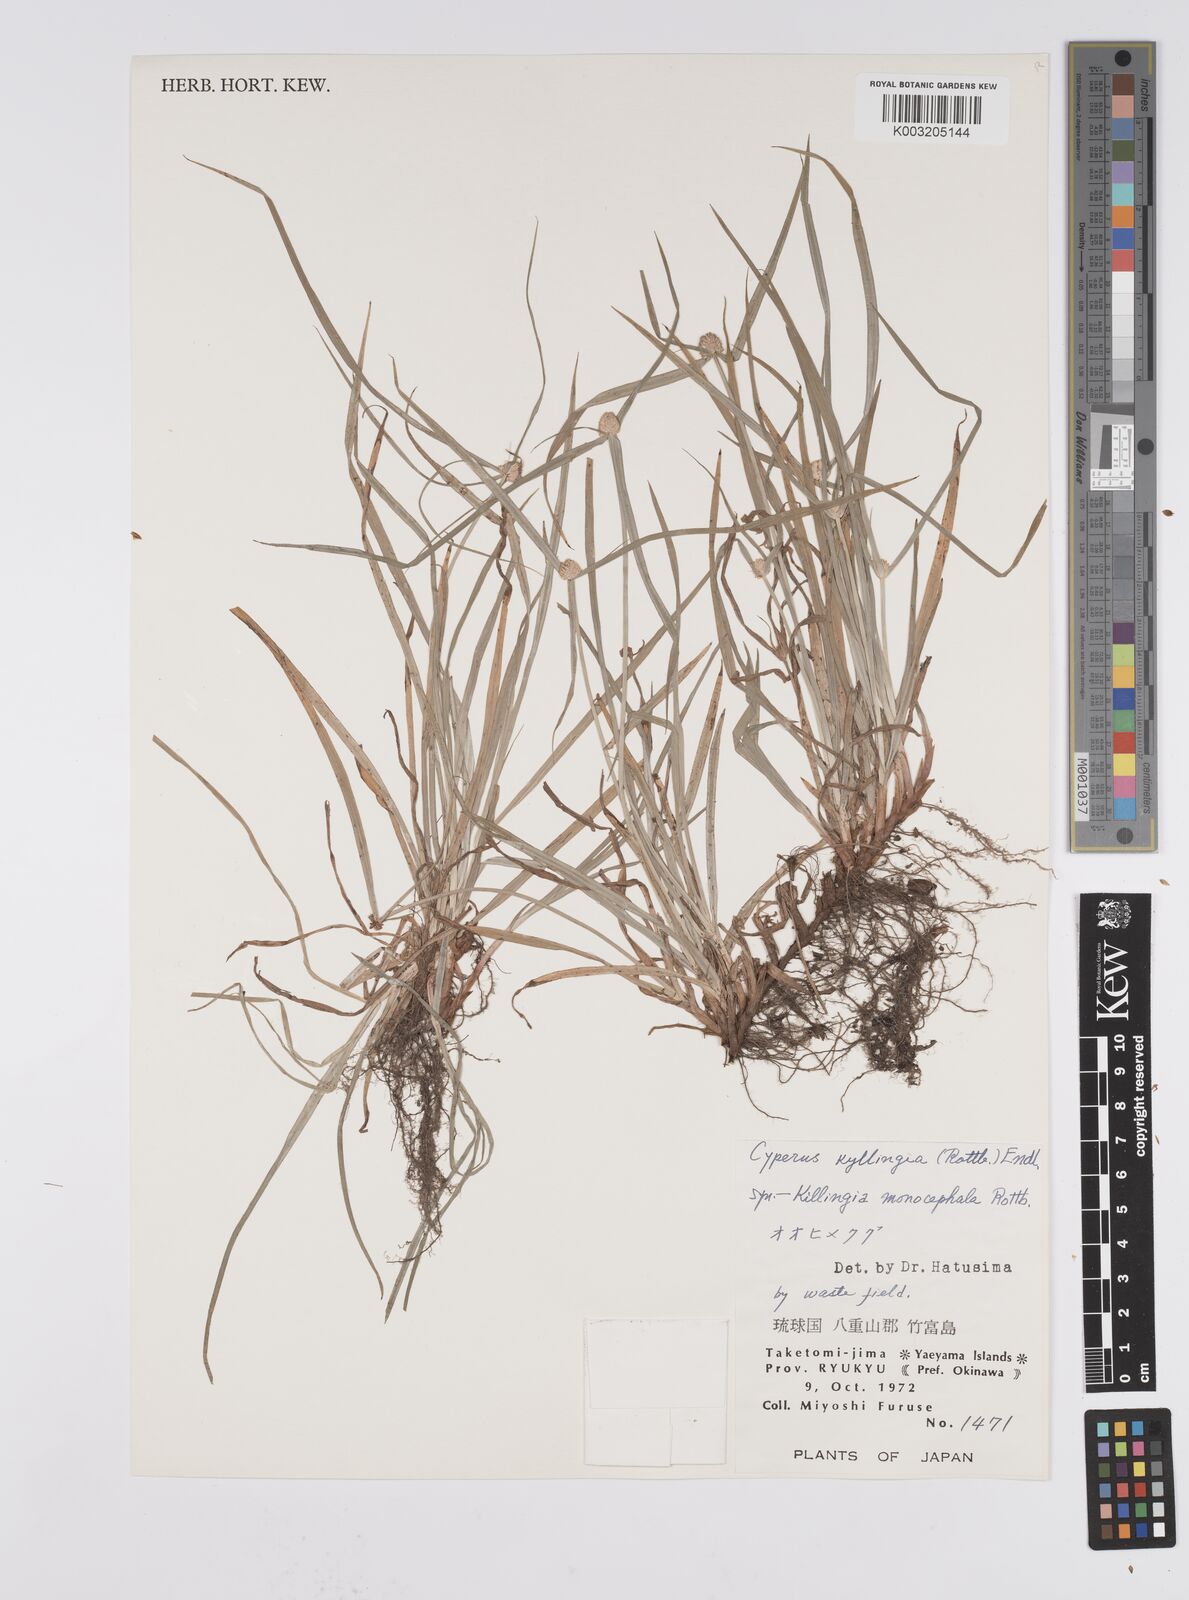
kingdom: Plantae
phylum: Tracheophyta
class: Liliopsida
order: Poales
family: Cyperaceae
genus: Cyperus
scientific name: Cyperus
